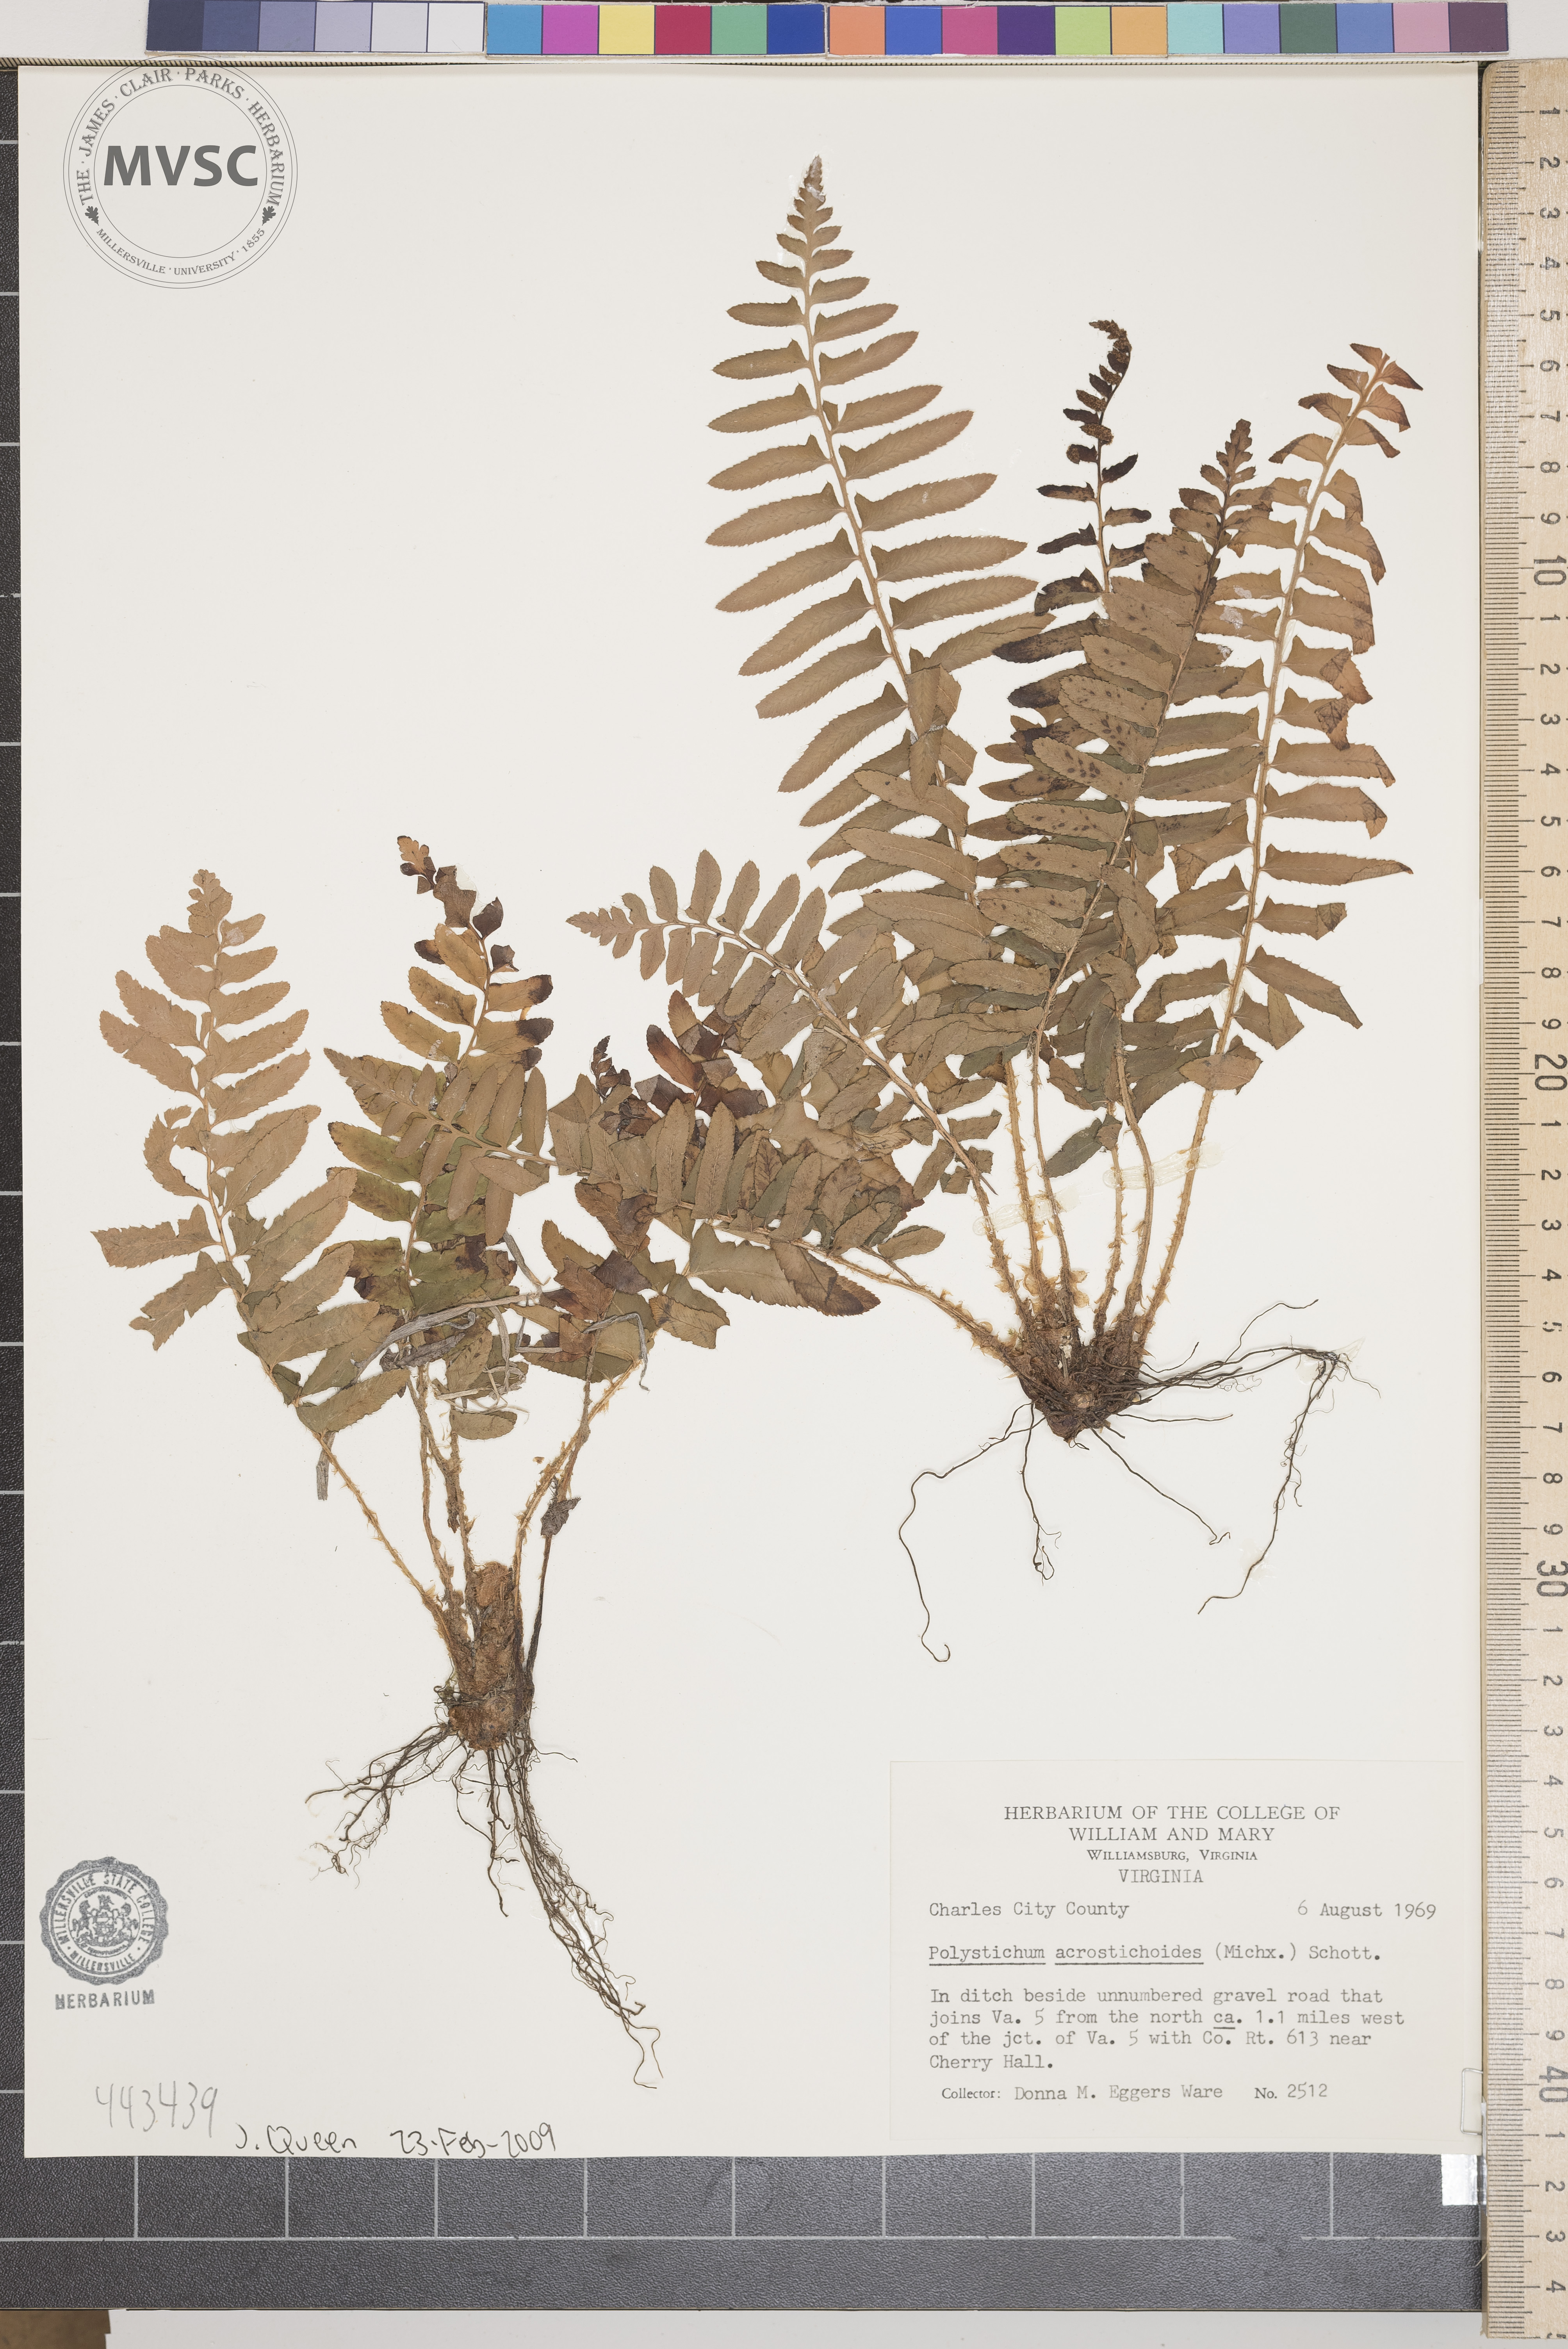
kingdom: Plantae
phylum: Tracheophyta
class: Polypodiopsida
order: Polypodiales
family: Dryopteridaceae
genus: Polystichum
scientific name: Polystichum acrostichoides
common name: Christmas fern
